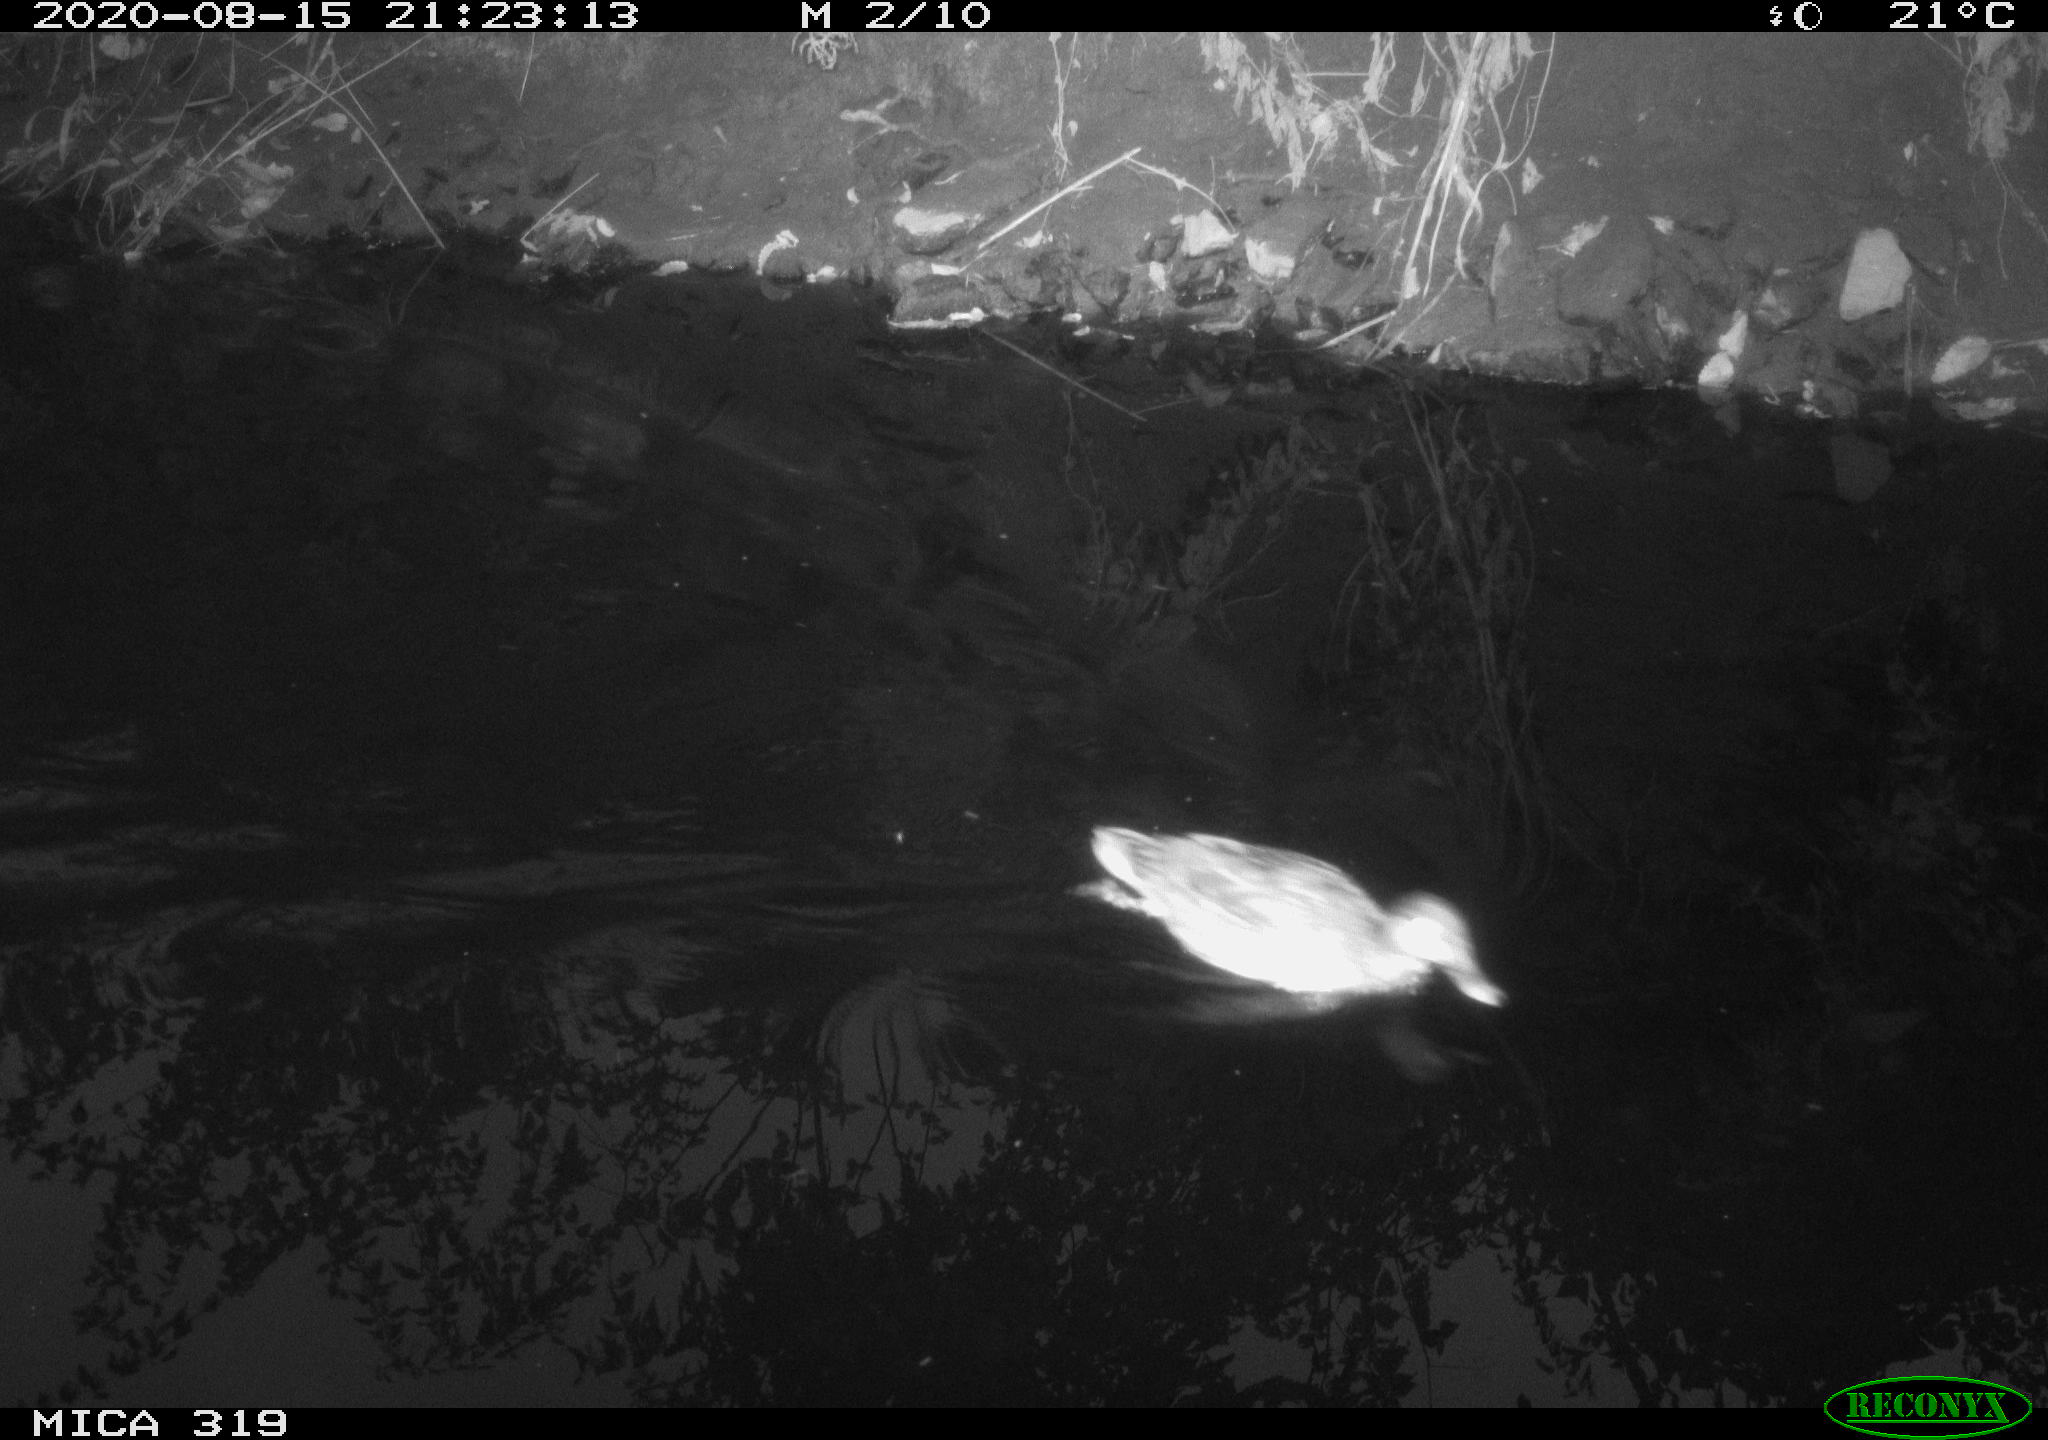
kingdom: Animalia
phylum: Chordata
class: Aves
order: Anseriformes
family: Anatidae
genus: Anas
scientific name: Anas platyrhynchos
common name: Mallard
